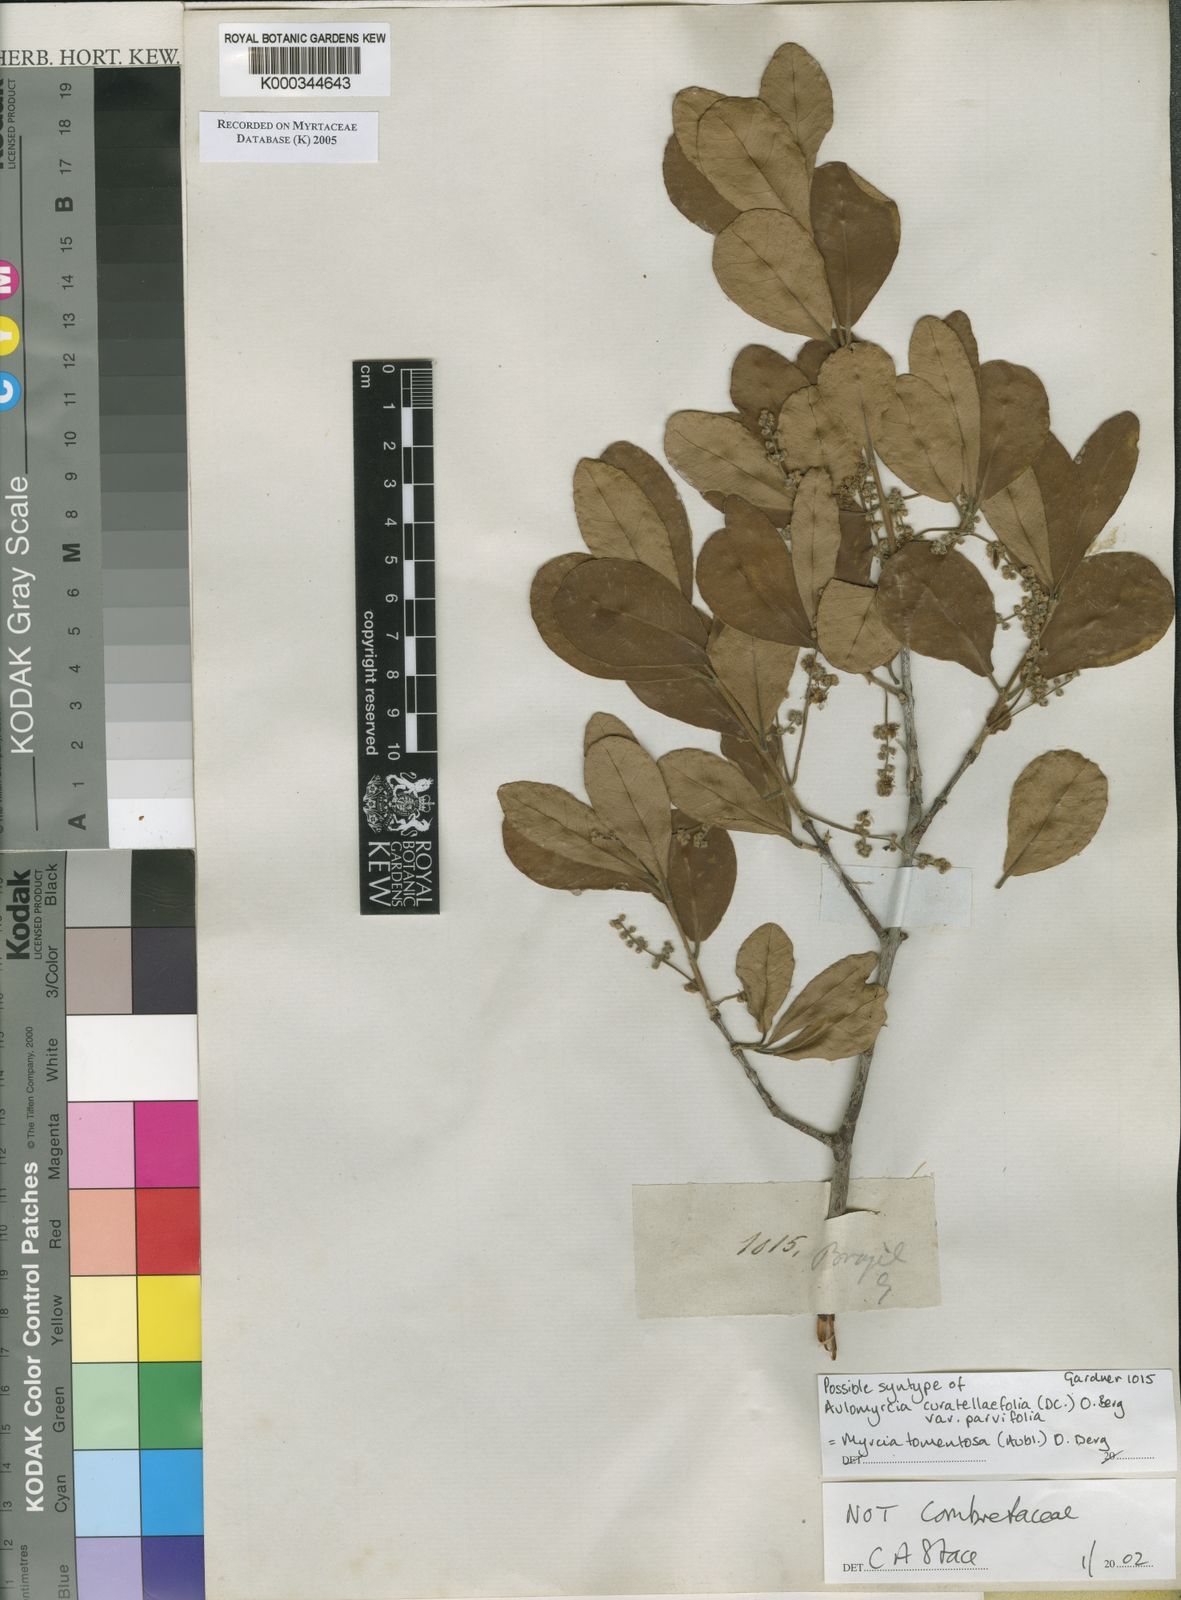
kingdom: Plantae
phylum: Tracheophyta
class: Magnoliopsida
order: Myrtales
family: Myrtaceae
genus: Myrcia
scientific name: Myrcia tomentosa
